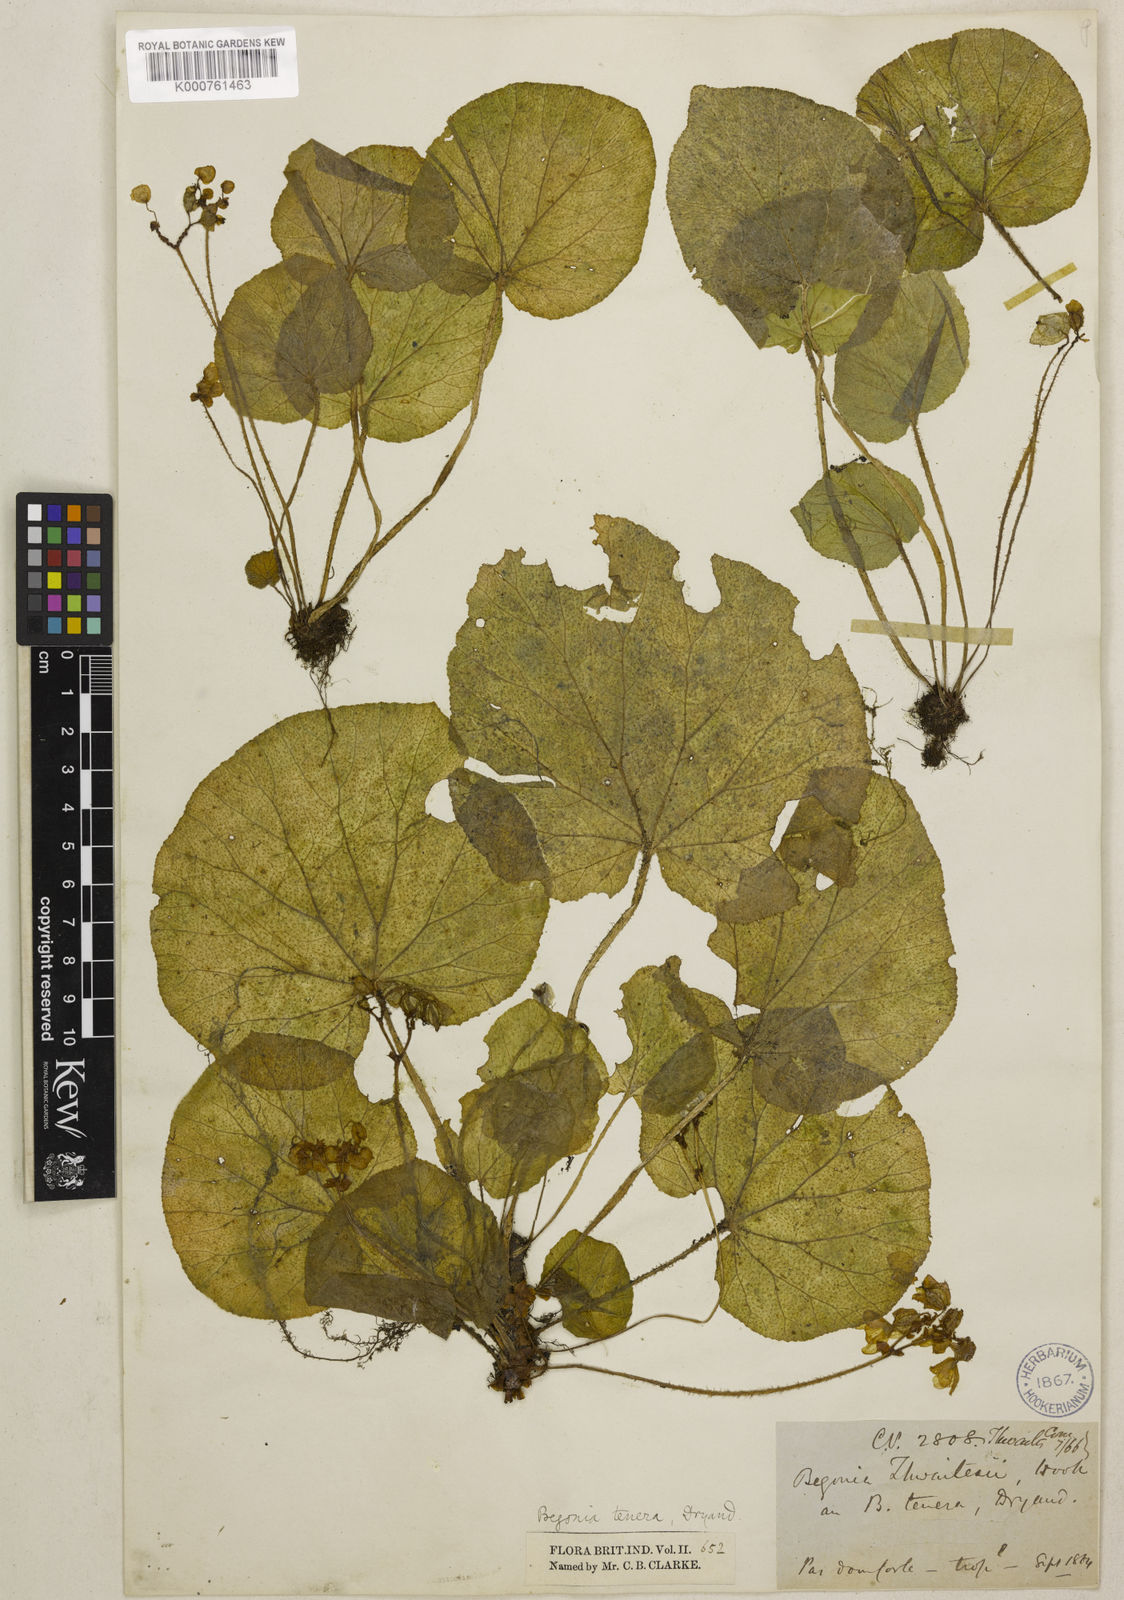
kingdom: Plantae
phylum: Tracheophyta
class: Magnoliopsida
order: Cucurbitales
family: Begoniaceae
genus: Begonia
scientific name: Begonia tenera
